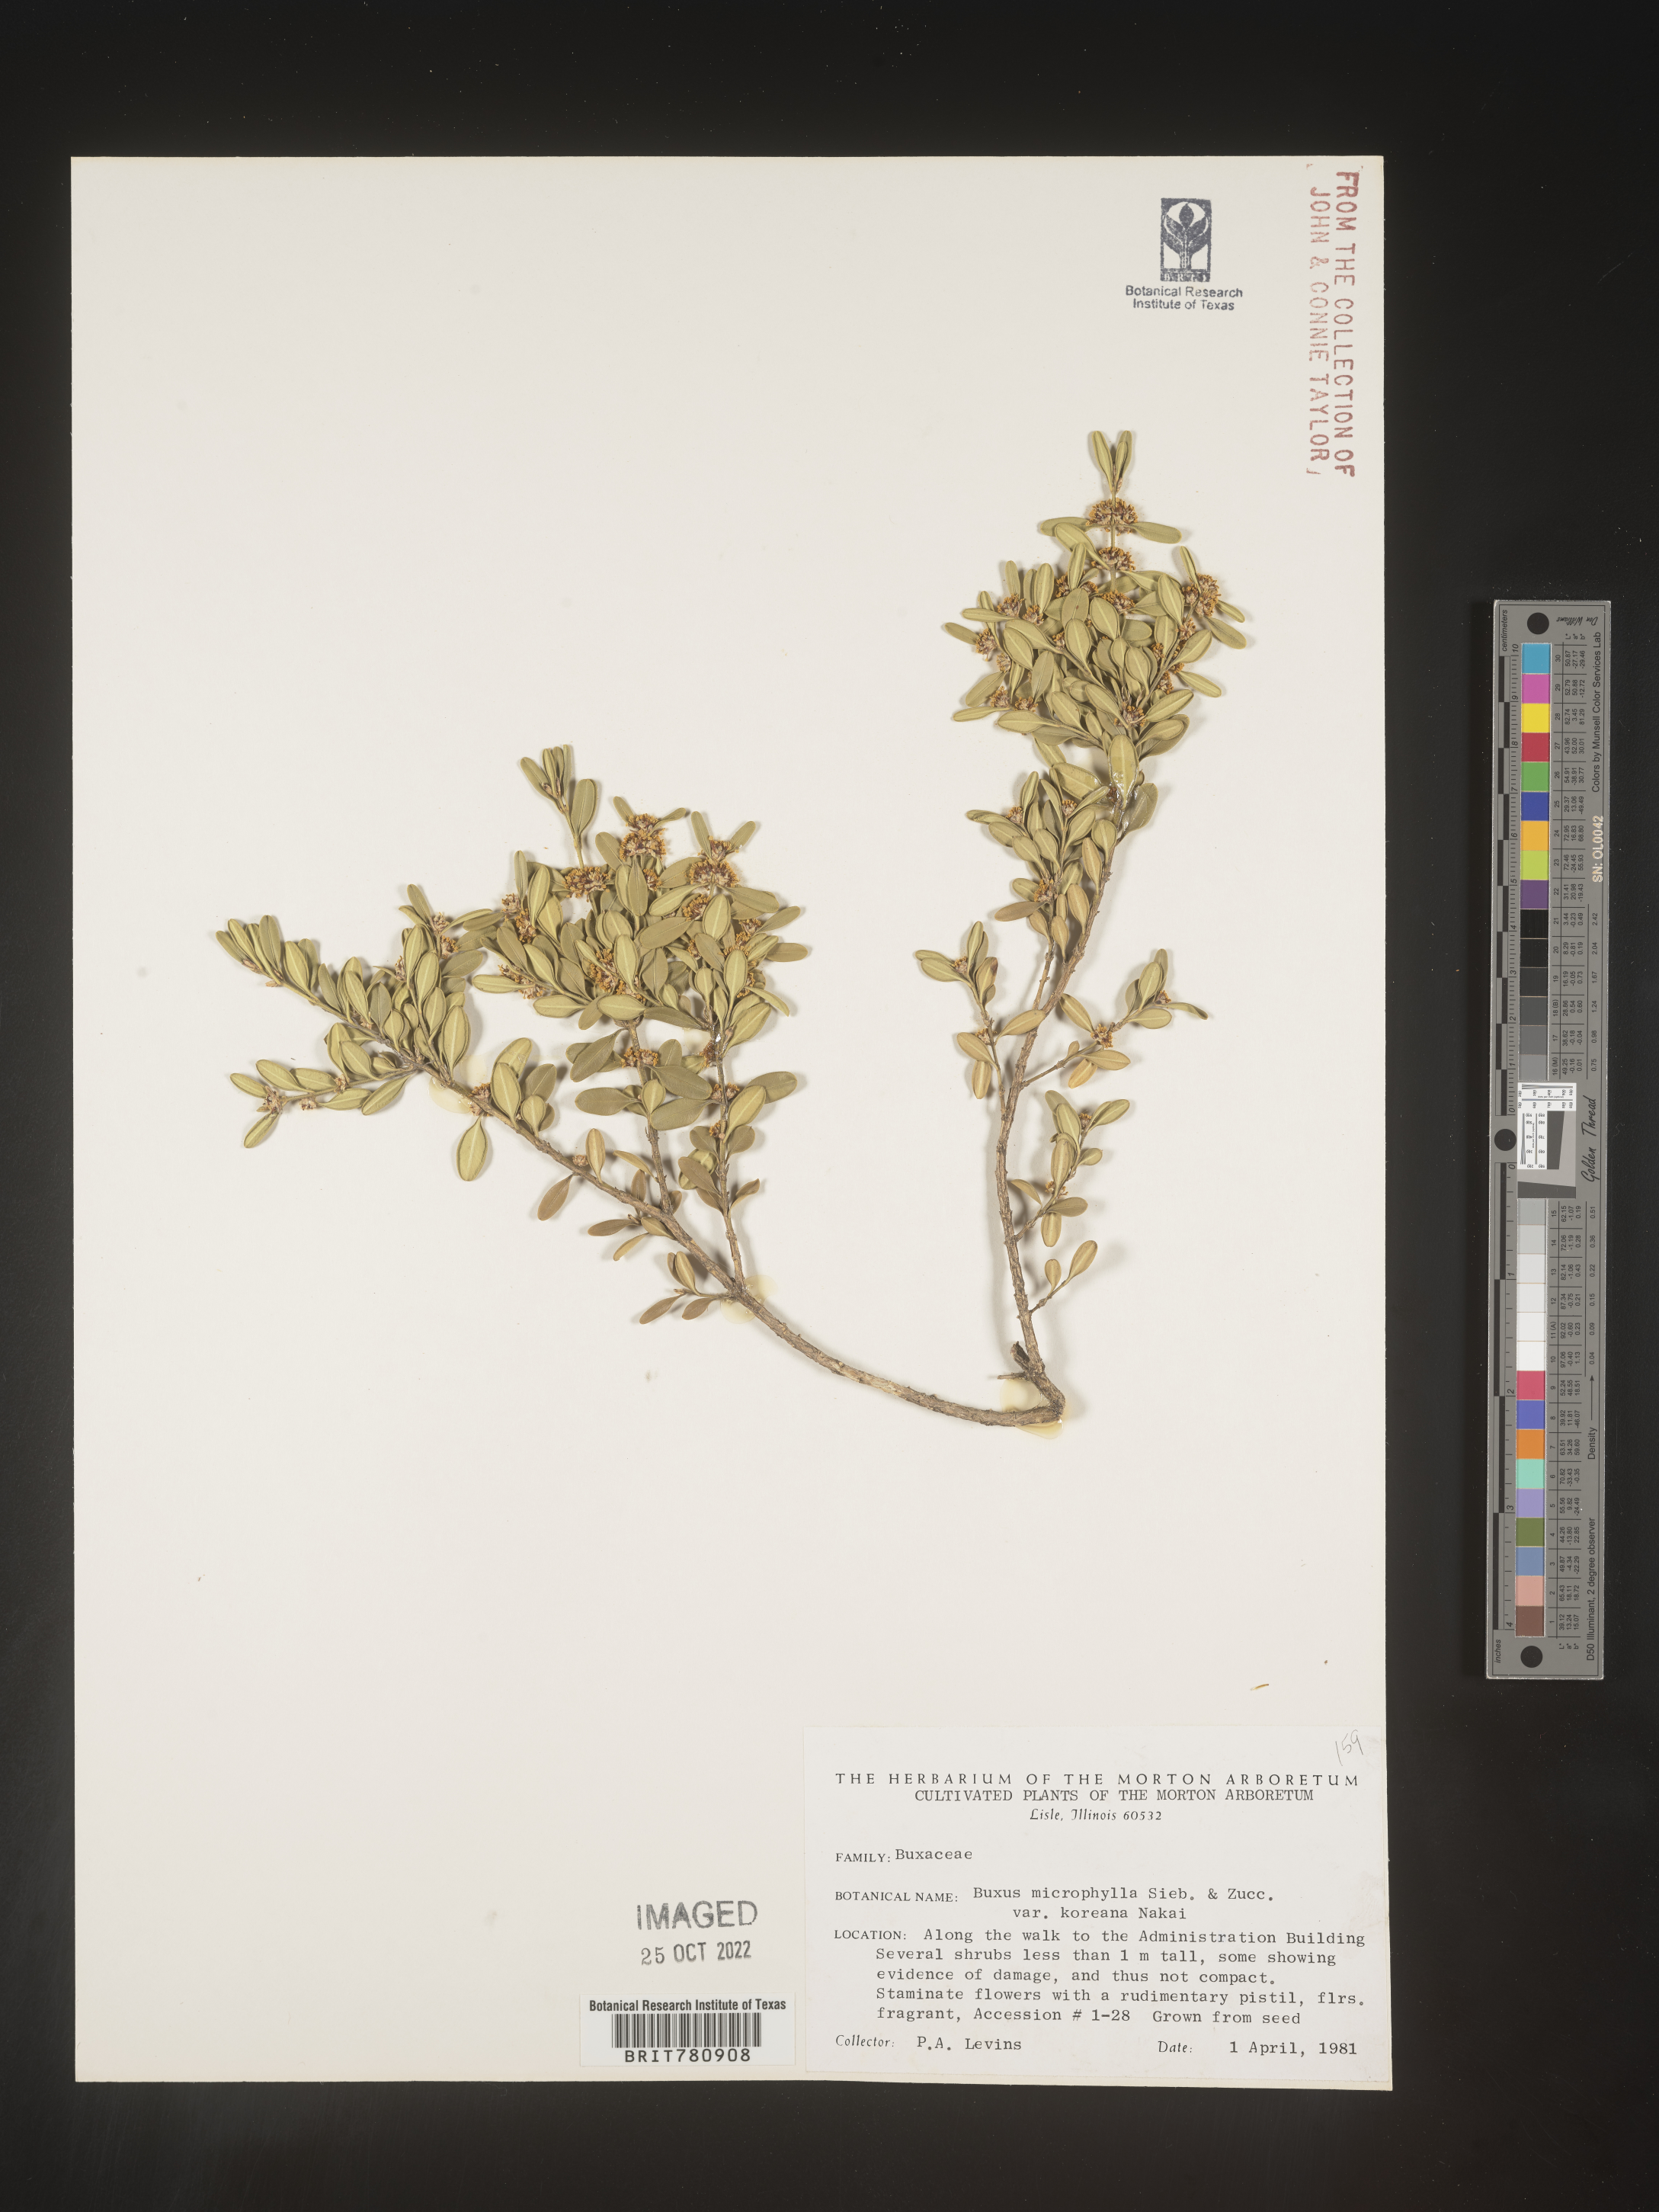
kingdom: Plantae
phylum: Tracheophyta
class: Magnoliopsida
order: Buxales
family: Buxaceae
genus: Buxus
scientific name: Buxus
